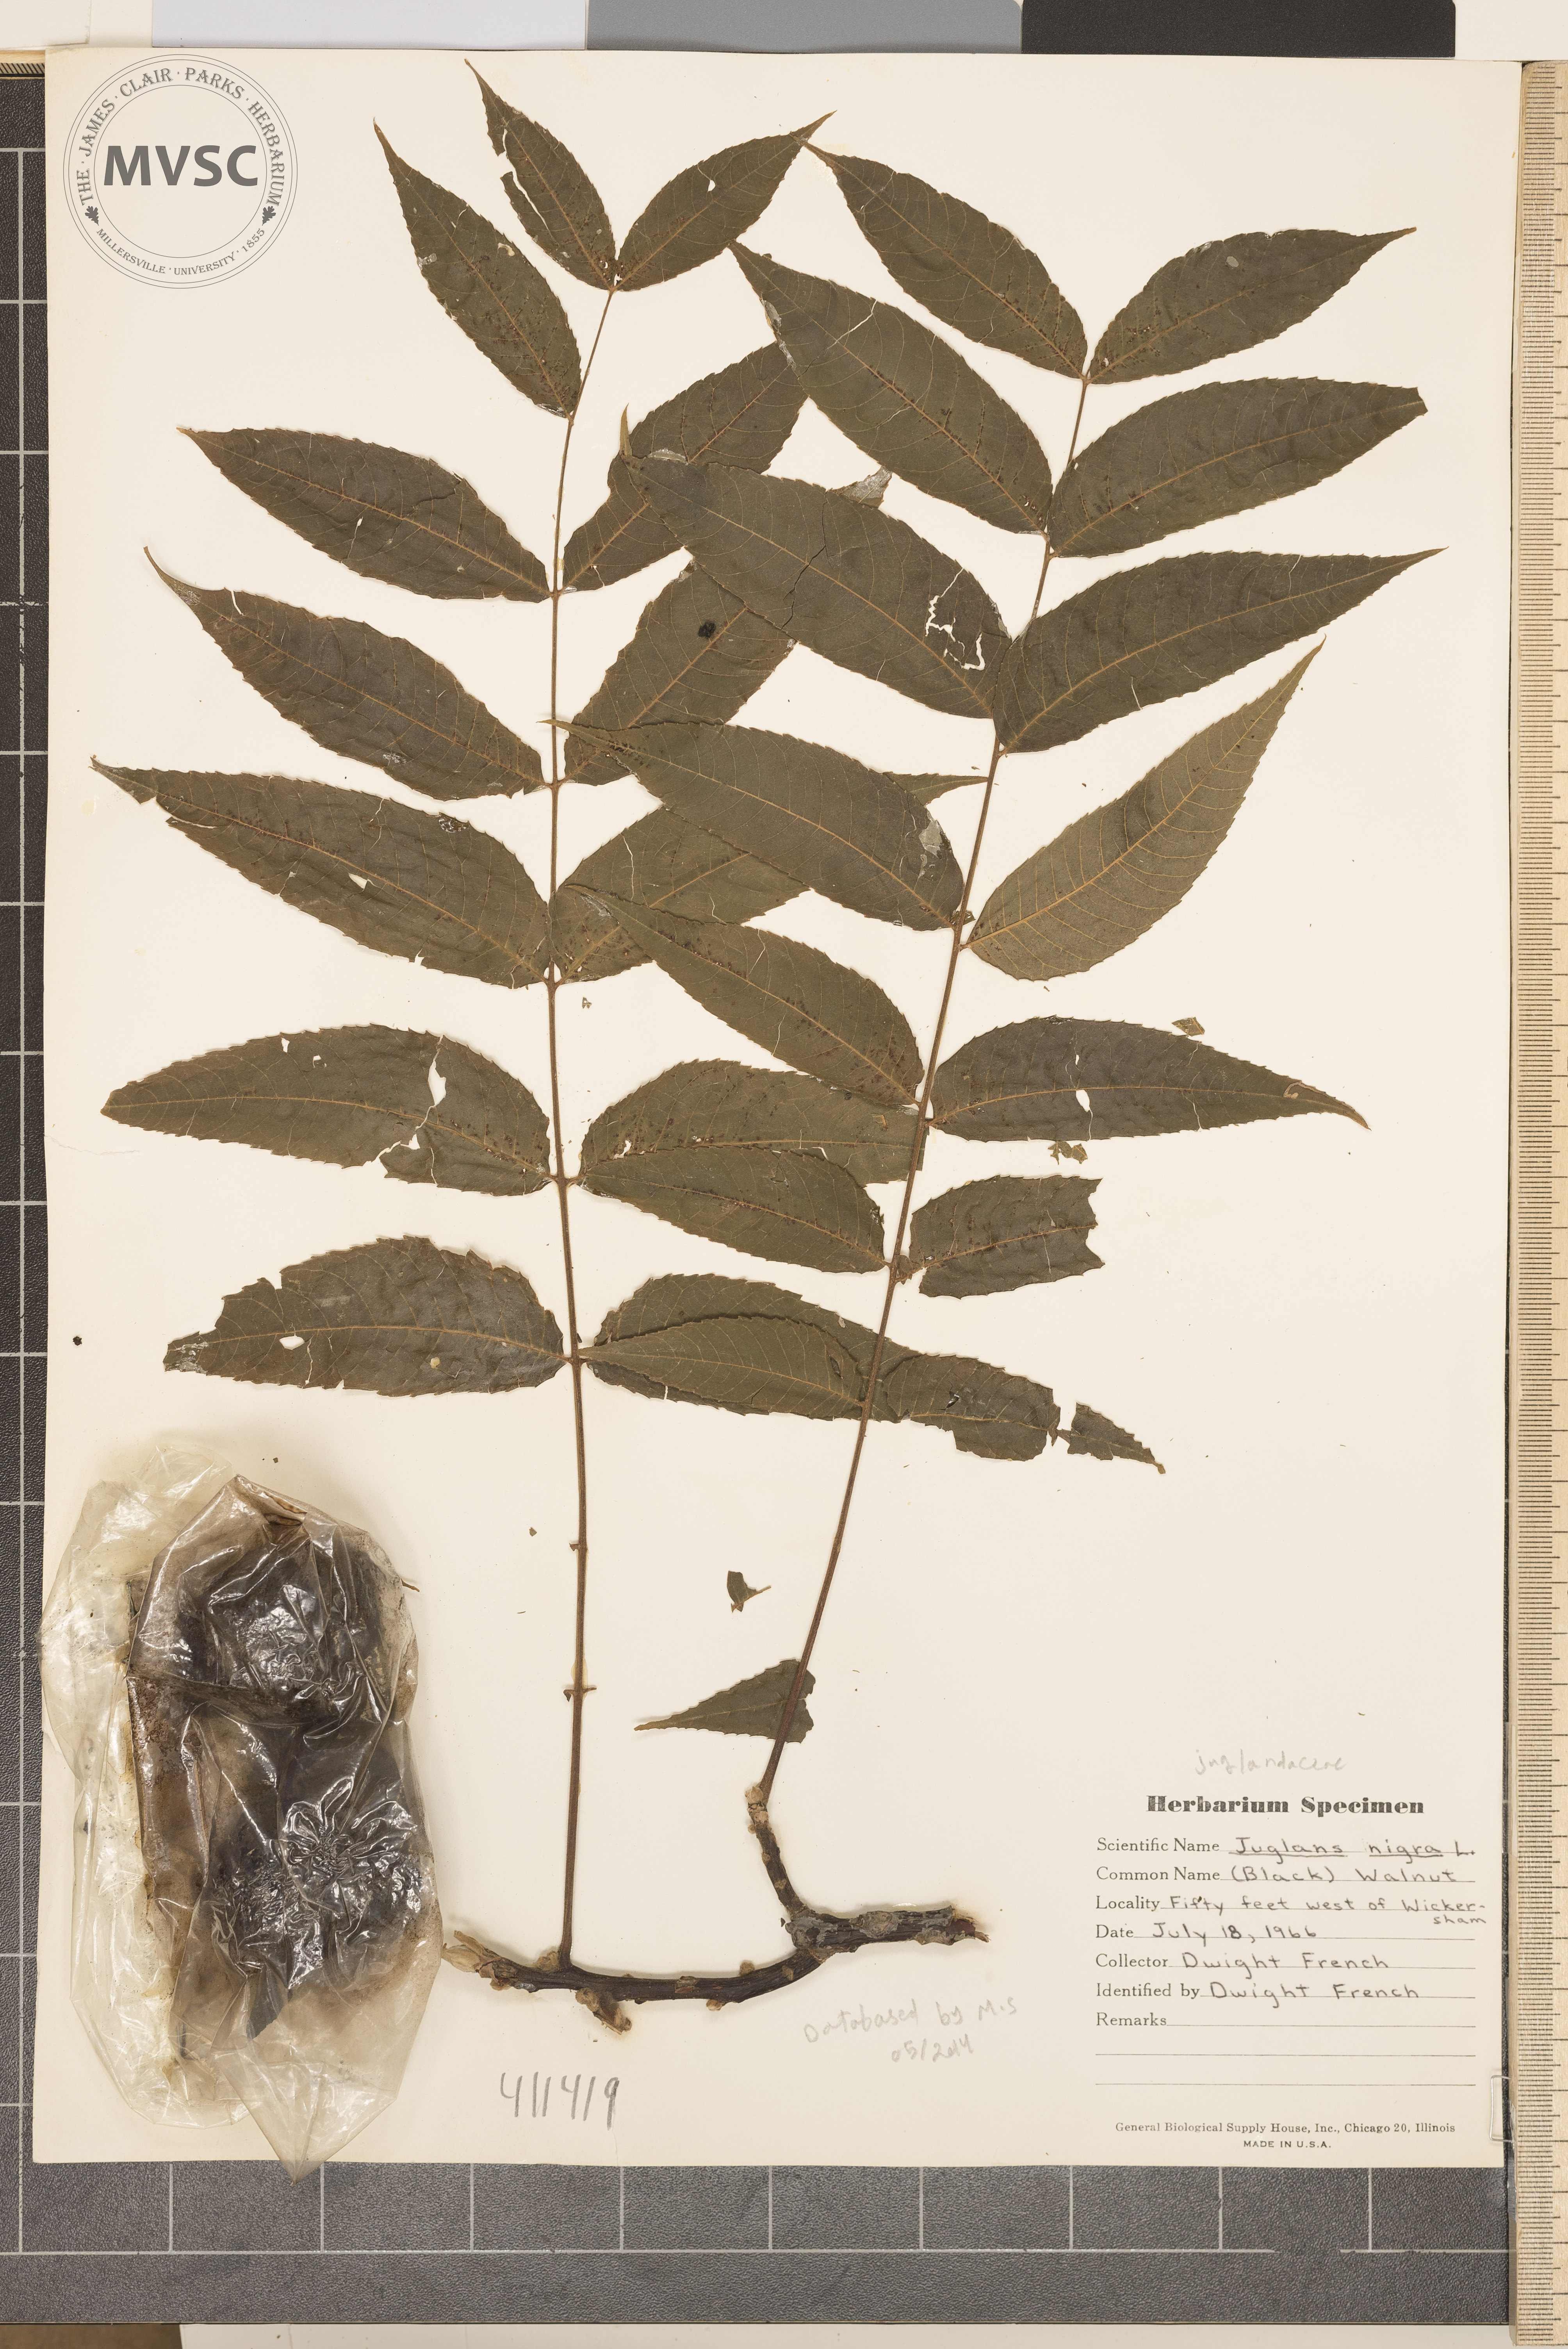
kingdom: Plantae
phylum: Tracheophyta
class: Magnoliopsida
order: Fagales
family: Juglandaceae
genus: Juglans
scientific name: Juglans nigra
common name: Black walnut
